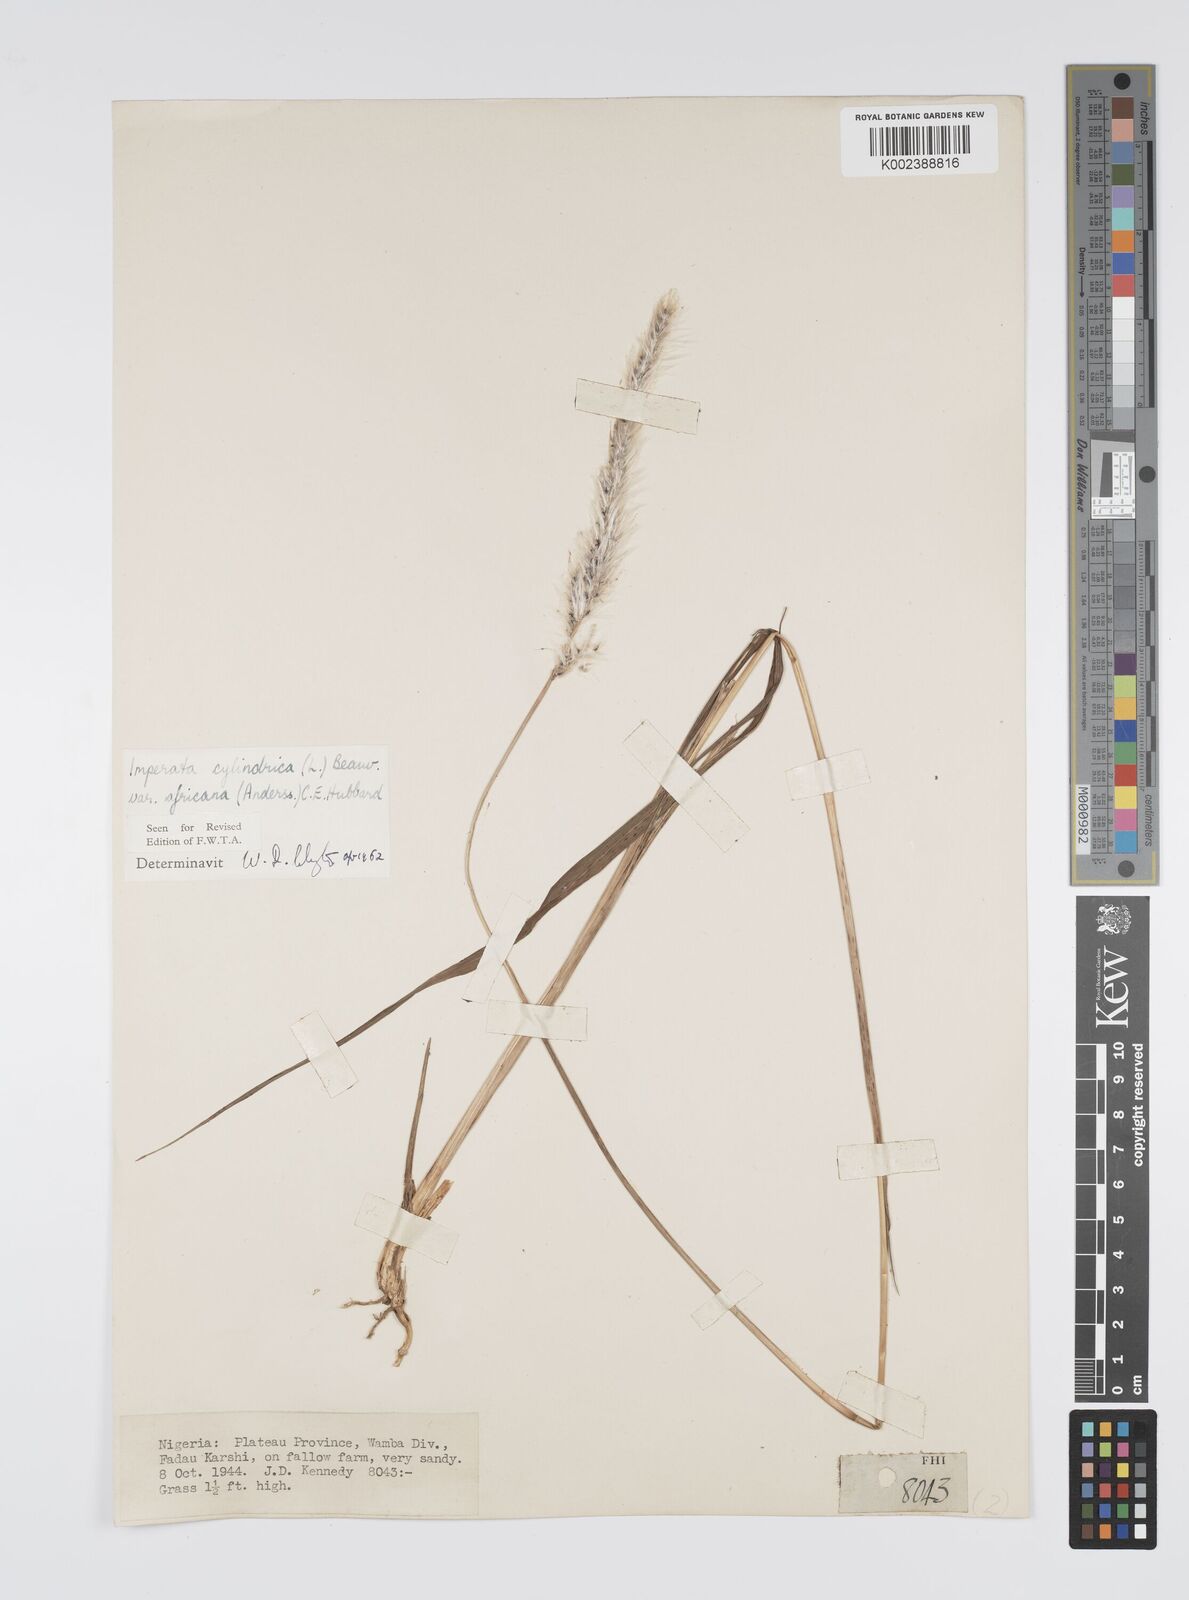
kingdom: Plantae
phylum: Tracheophyta
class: Liliopsida
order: Poales
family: Poaceae
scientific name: Poaceae
